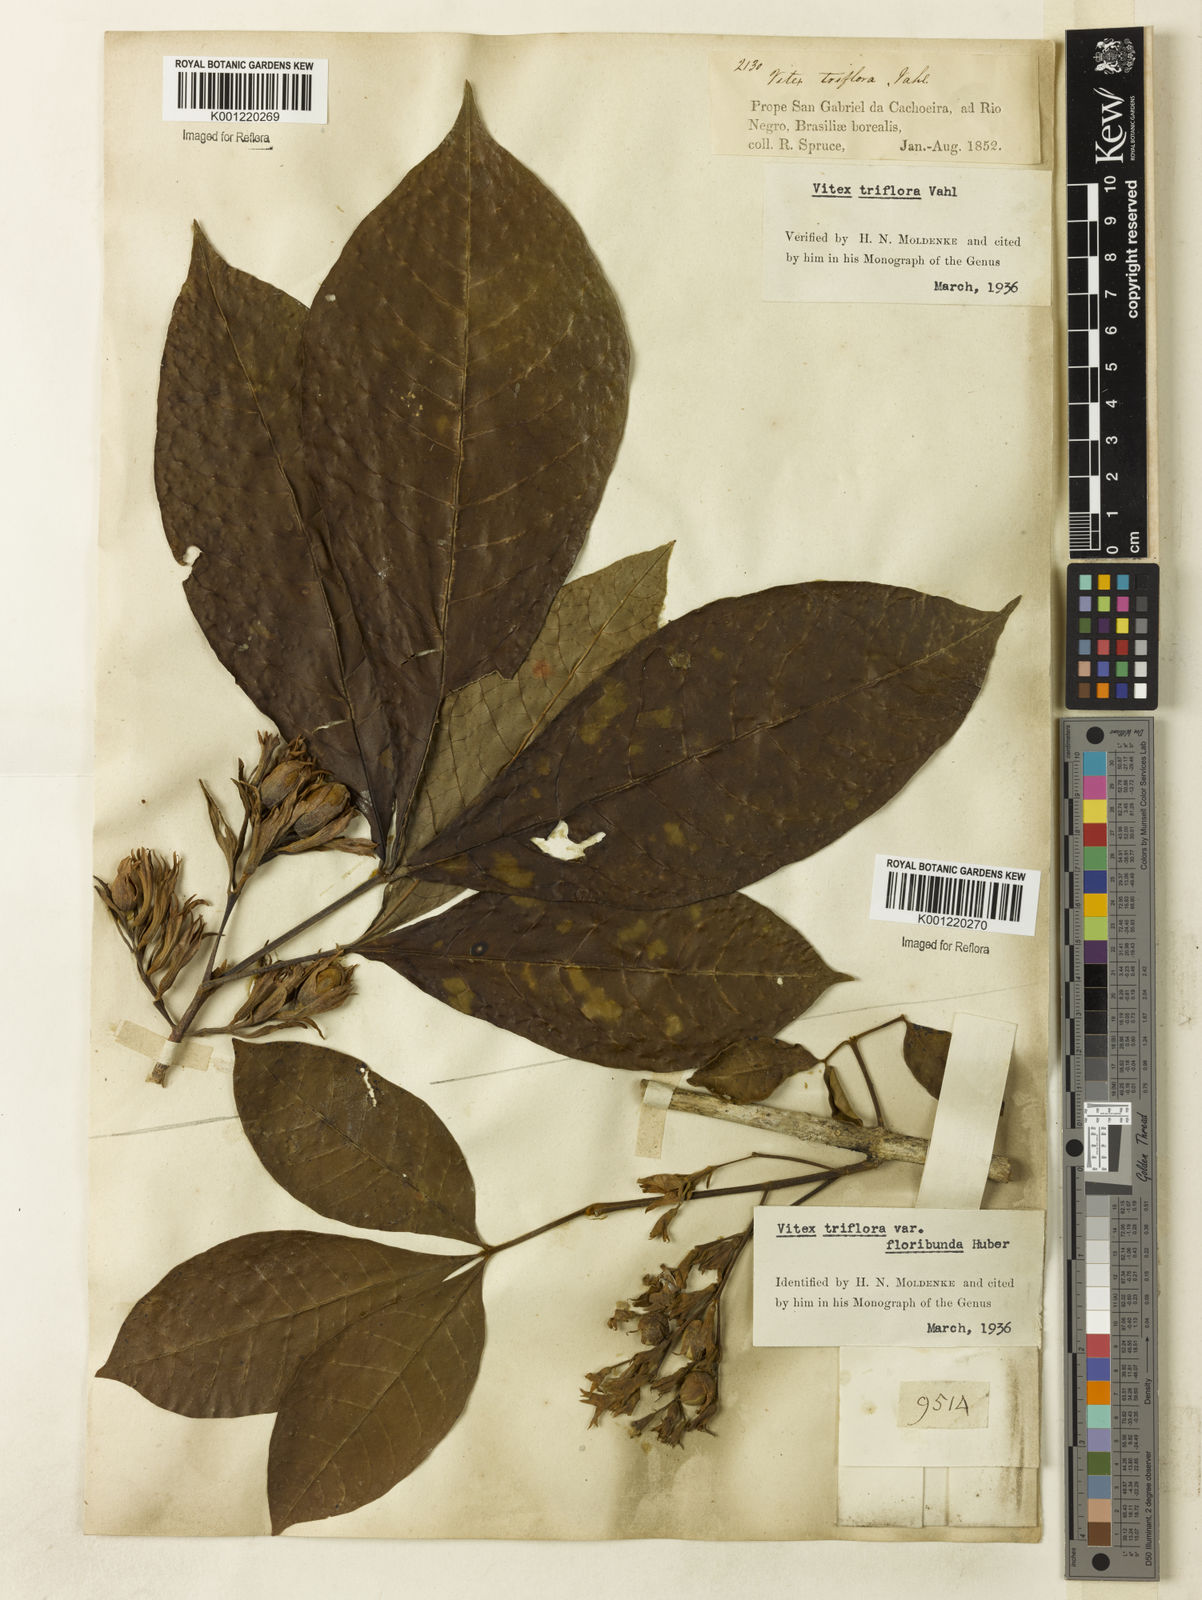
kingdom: Plantae
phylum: Tracheophyta
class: Magnoliopsida
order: Lamiales
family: Lamiaceae
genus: Vitex
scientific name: Vitex triflora
